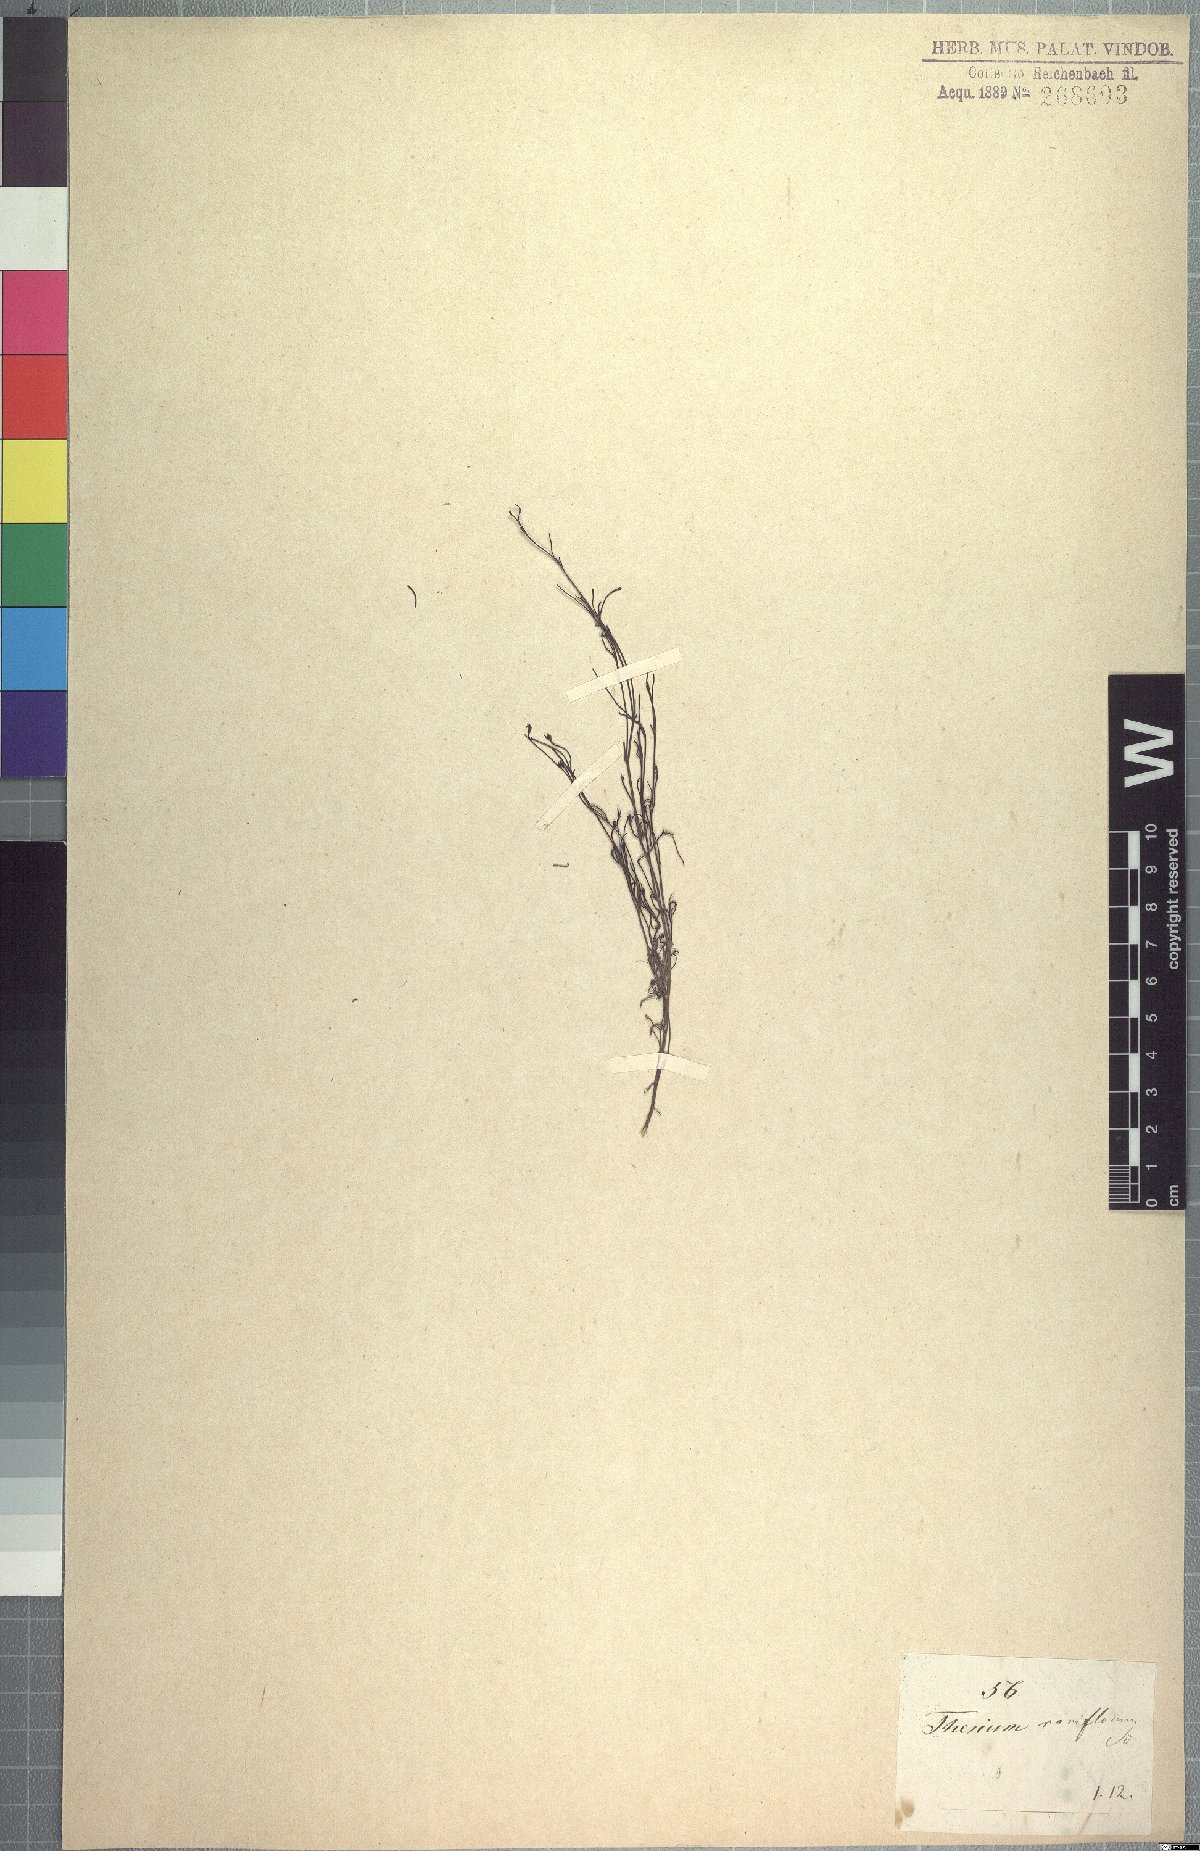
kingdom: Plantae
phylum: Tracheophyta
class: Magnoliopsida
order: Santalales
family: Thesiaceae
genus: Thesium
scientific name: Thesium rariflorum
